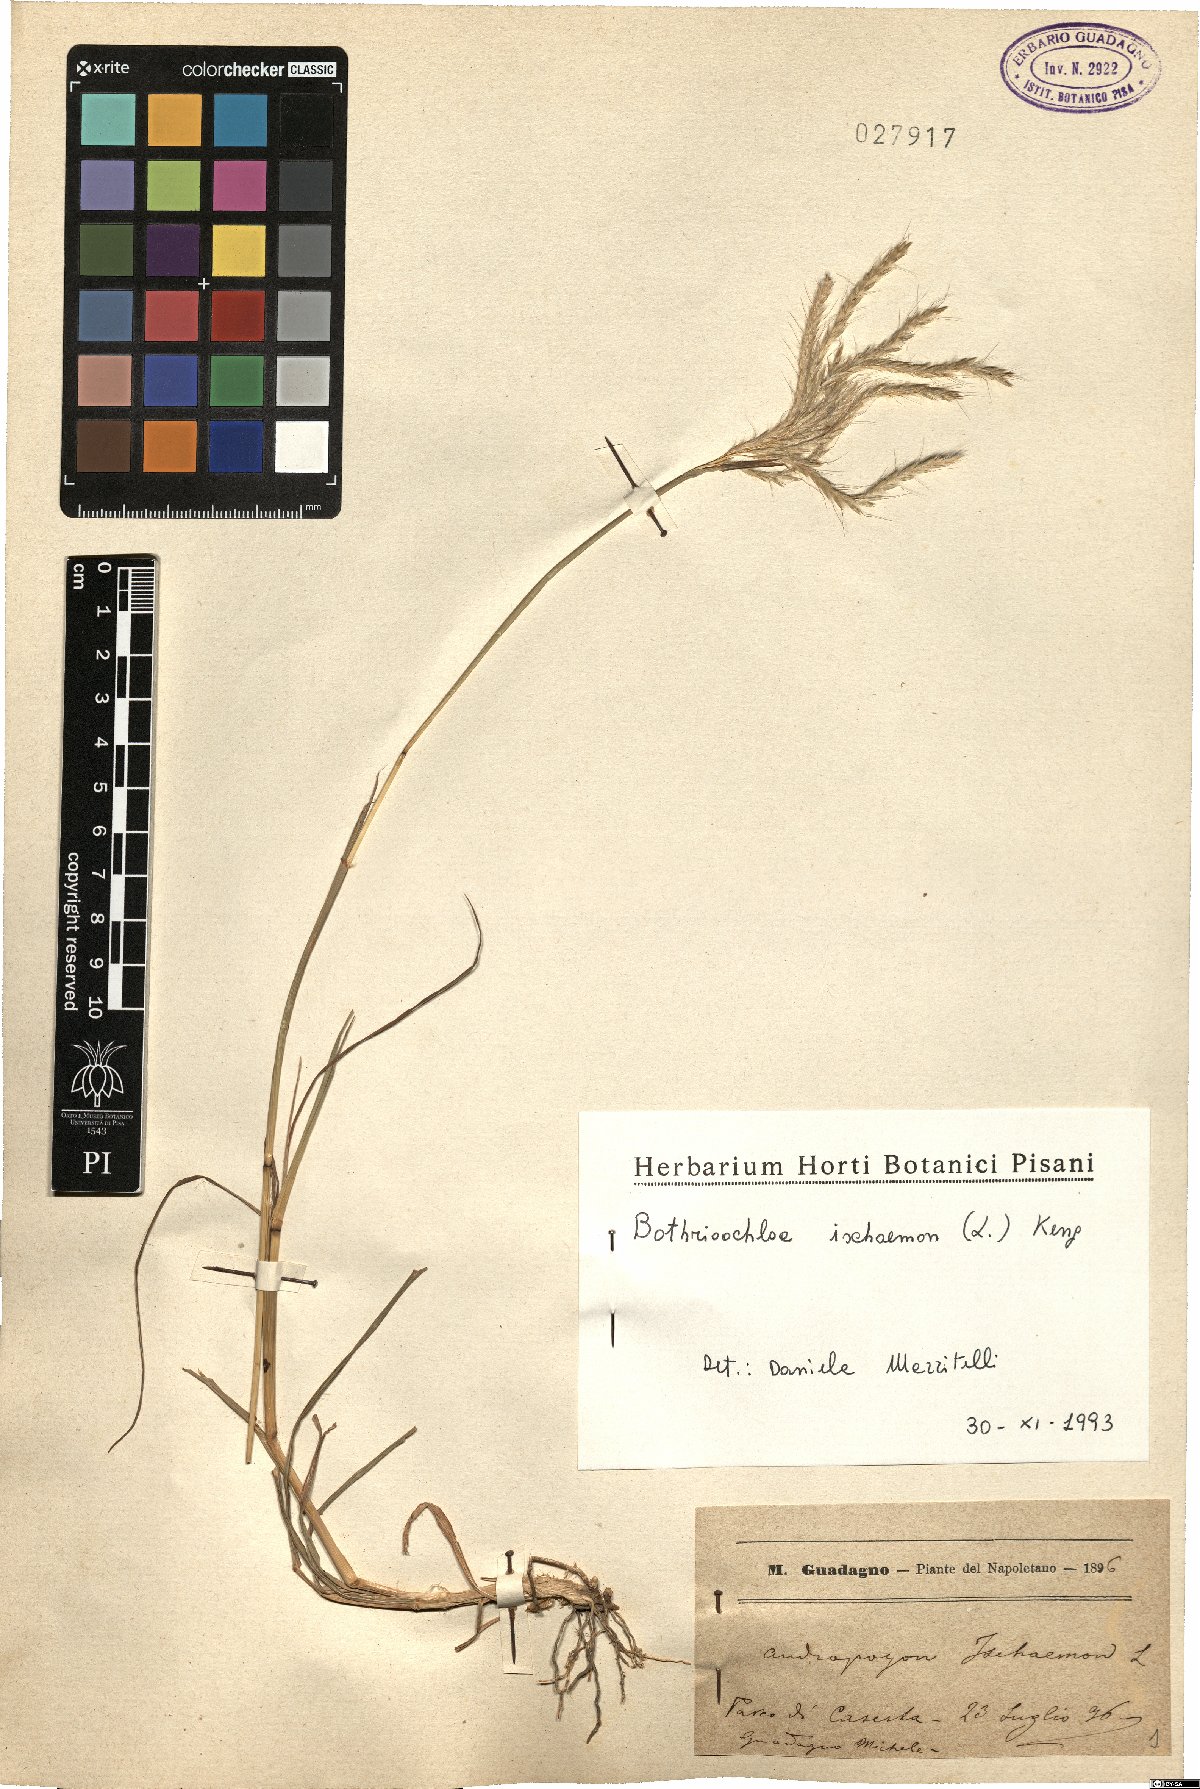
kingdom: Plantae
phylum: Tracheophyta
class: Liliopsida
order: Poales
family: Poaceae
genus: Bothriochloa
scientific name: Bothriochloa ischaemum
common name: Yellow bluestem
